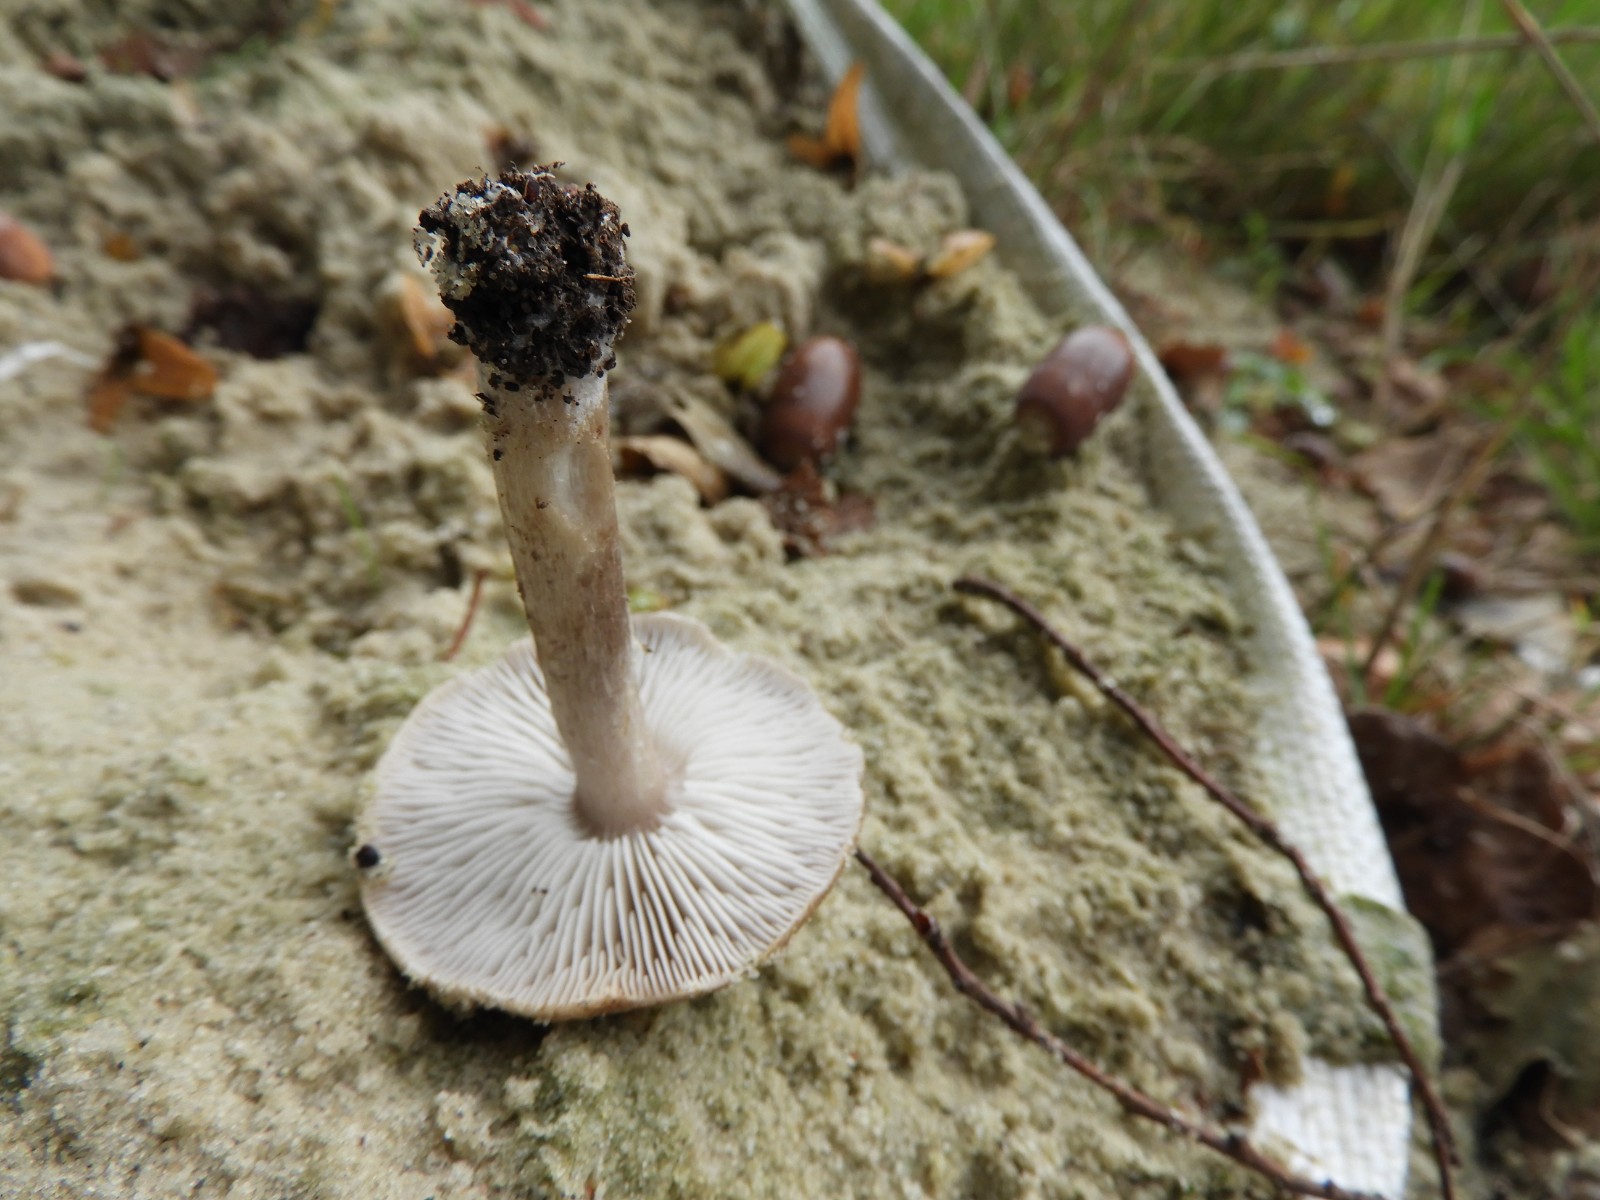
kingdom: Fungi
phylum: Basidiomycota
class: Agaricomycetes
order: Agaricales
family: Tricholomataceae
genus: Tricholoma
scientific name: Tricholoma
